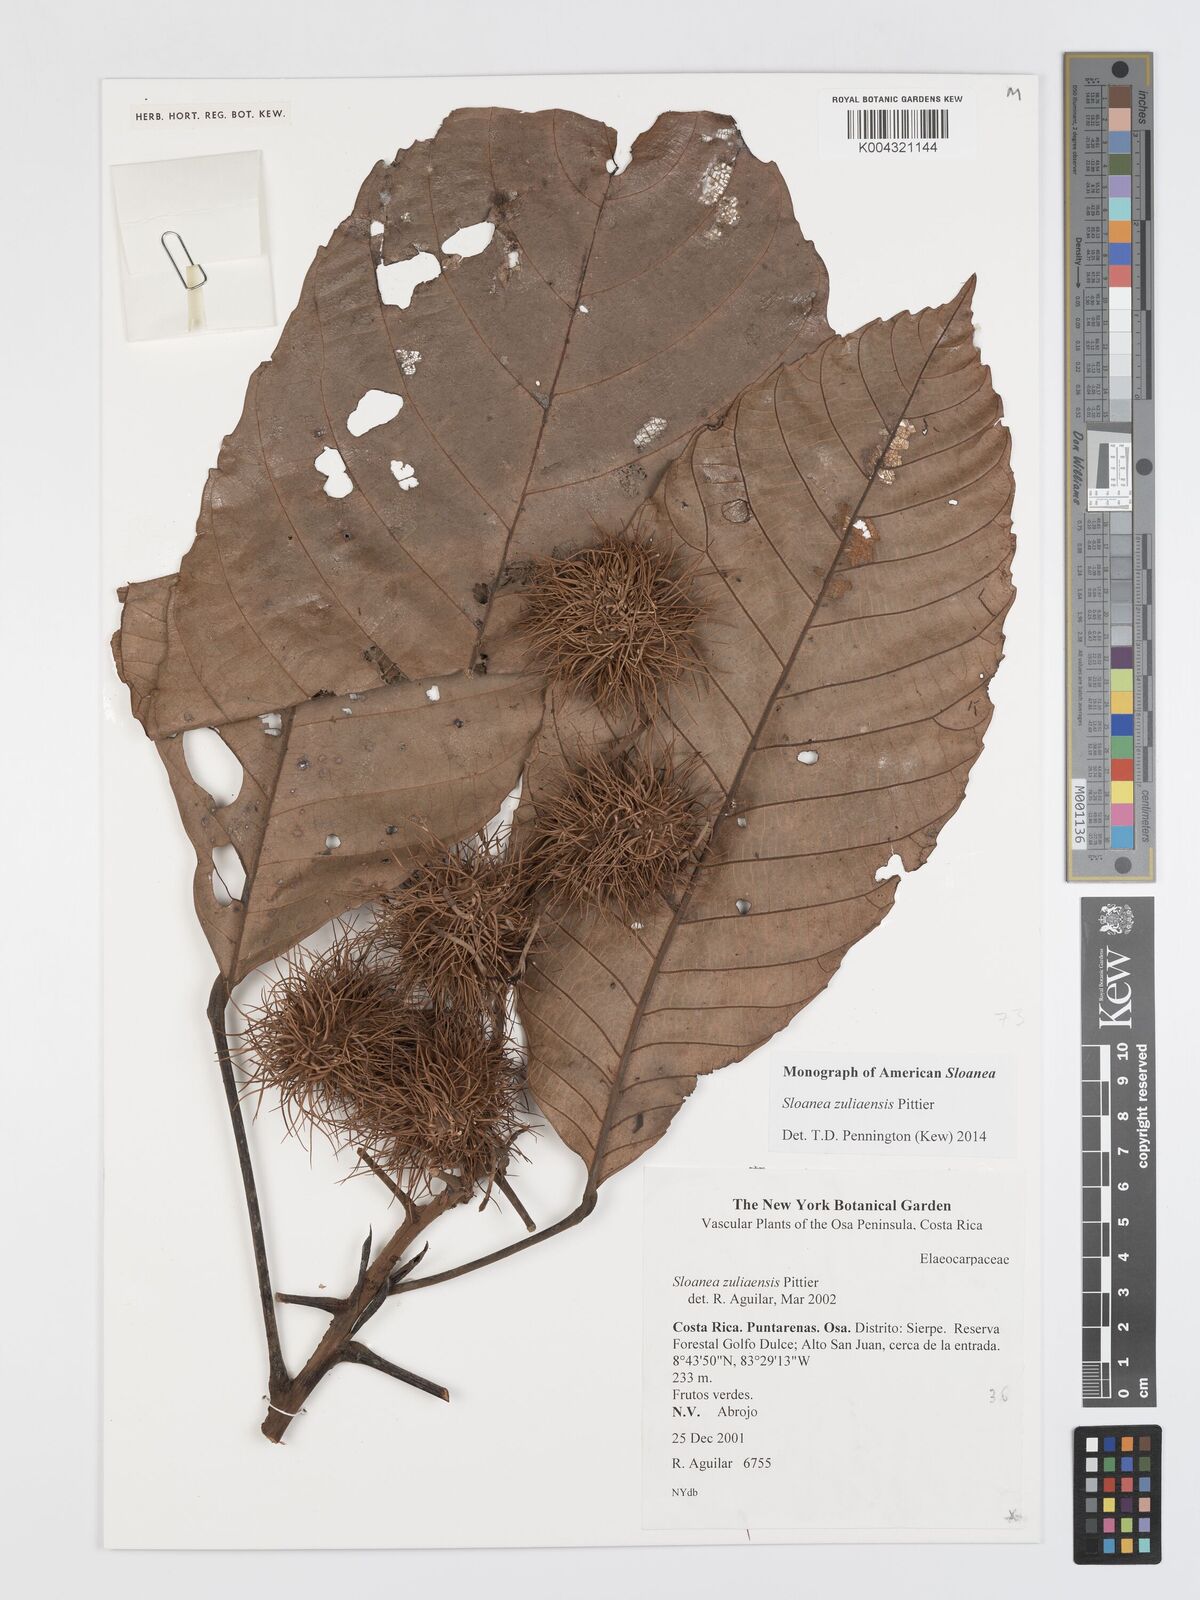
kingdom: Plantae
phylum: Tracheophyta
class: Magnoliopsida
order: Oxalidales
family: Elaeocarpaceae
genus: Sloanea
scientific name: Sloanea
